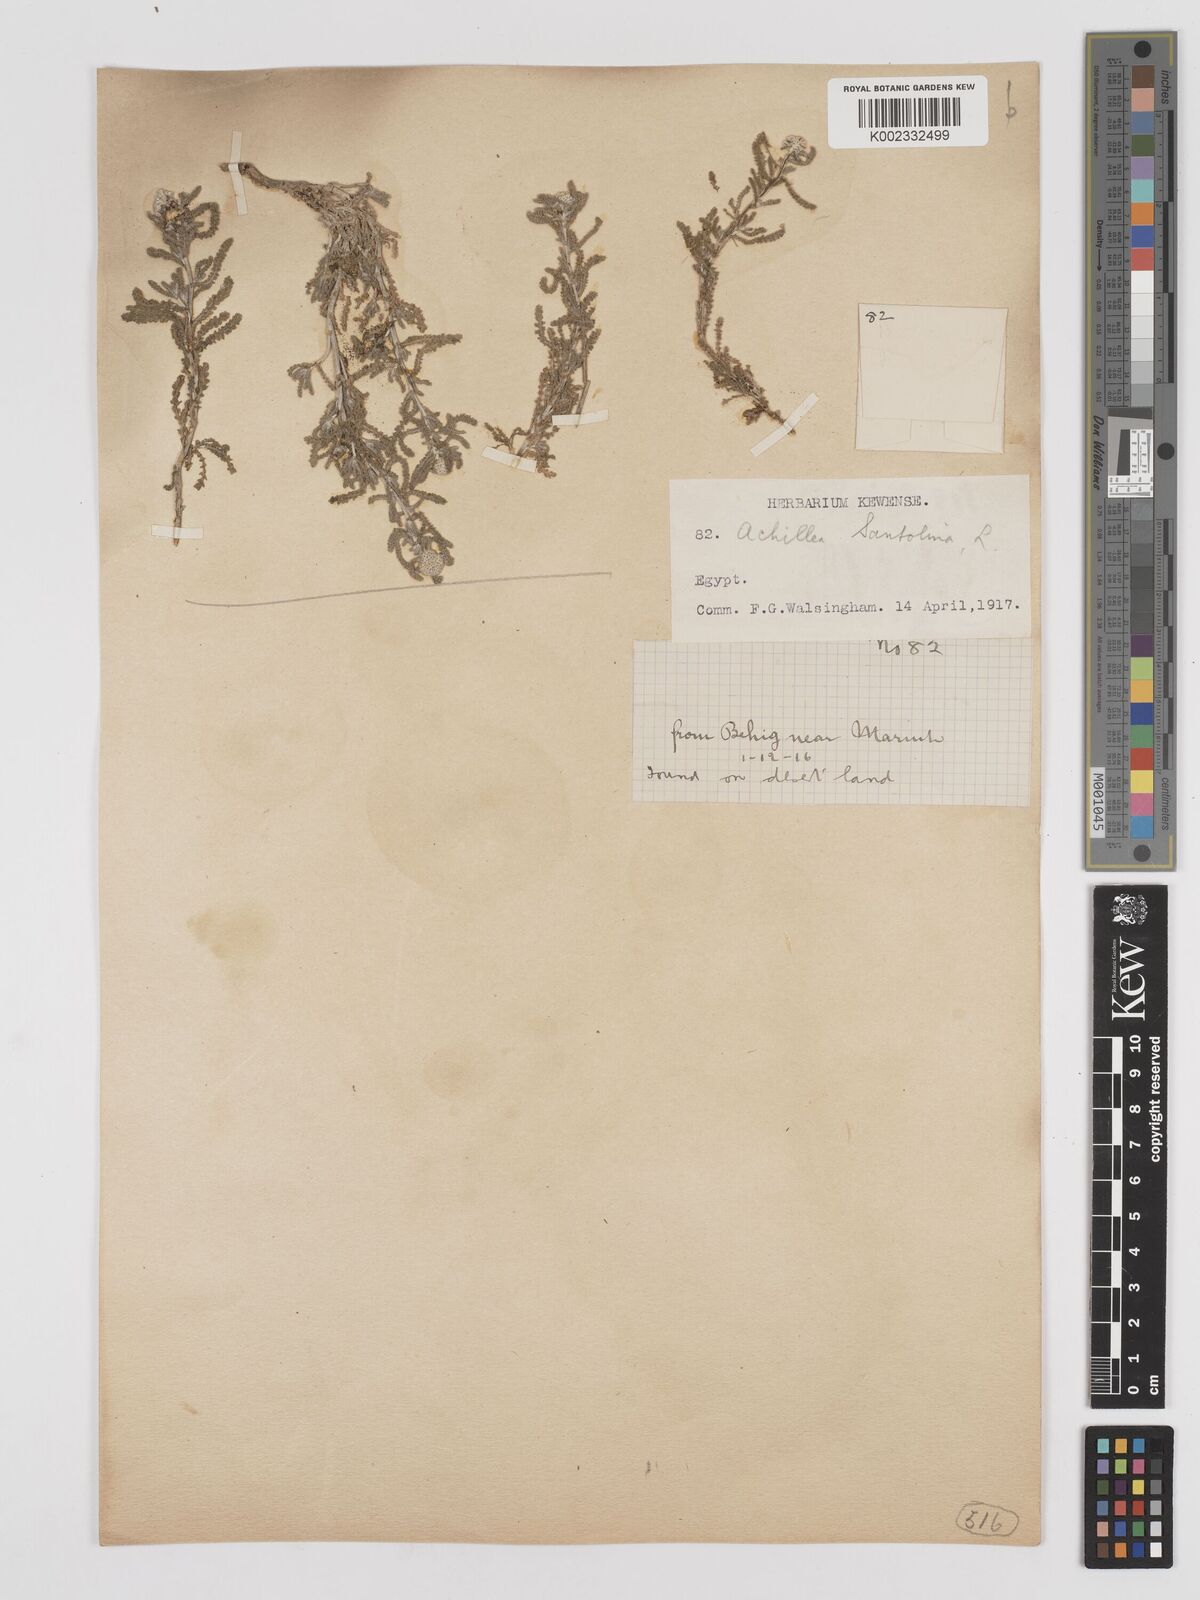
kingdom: Plantae
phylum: Tracheophyta
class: Magnoliopsida
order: Asterales
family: Asteraceae
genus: Achillea
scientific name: Achillea tenuifolia
